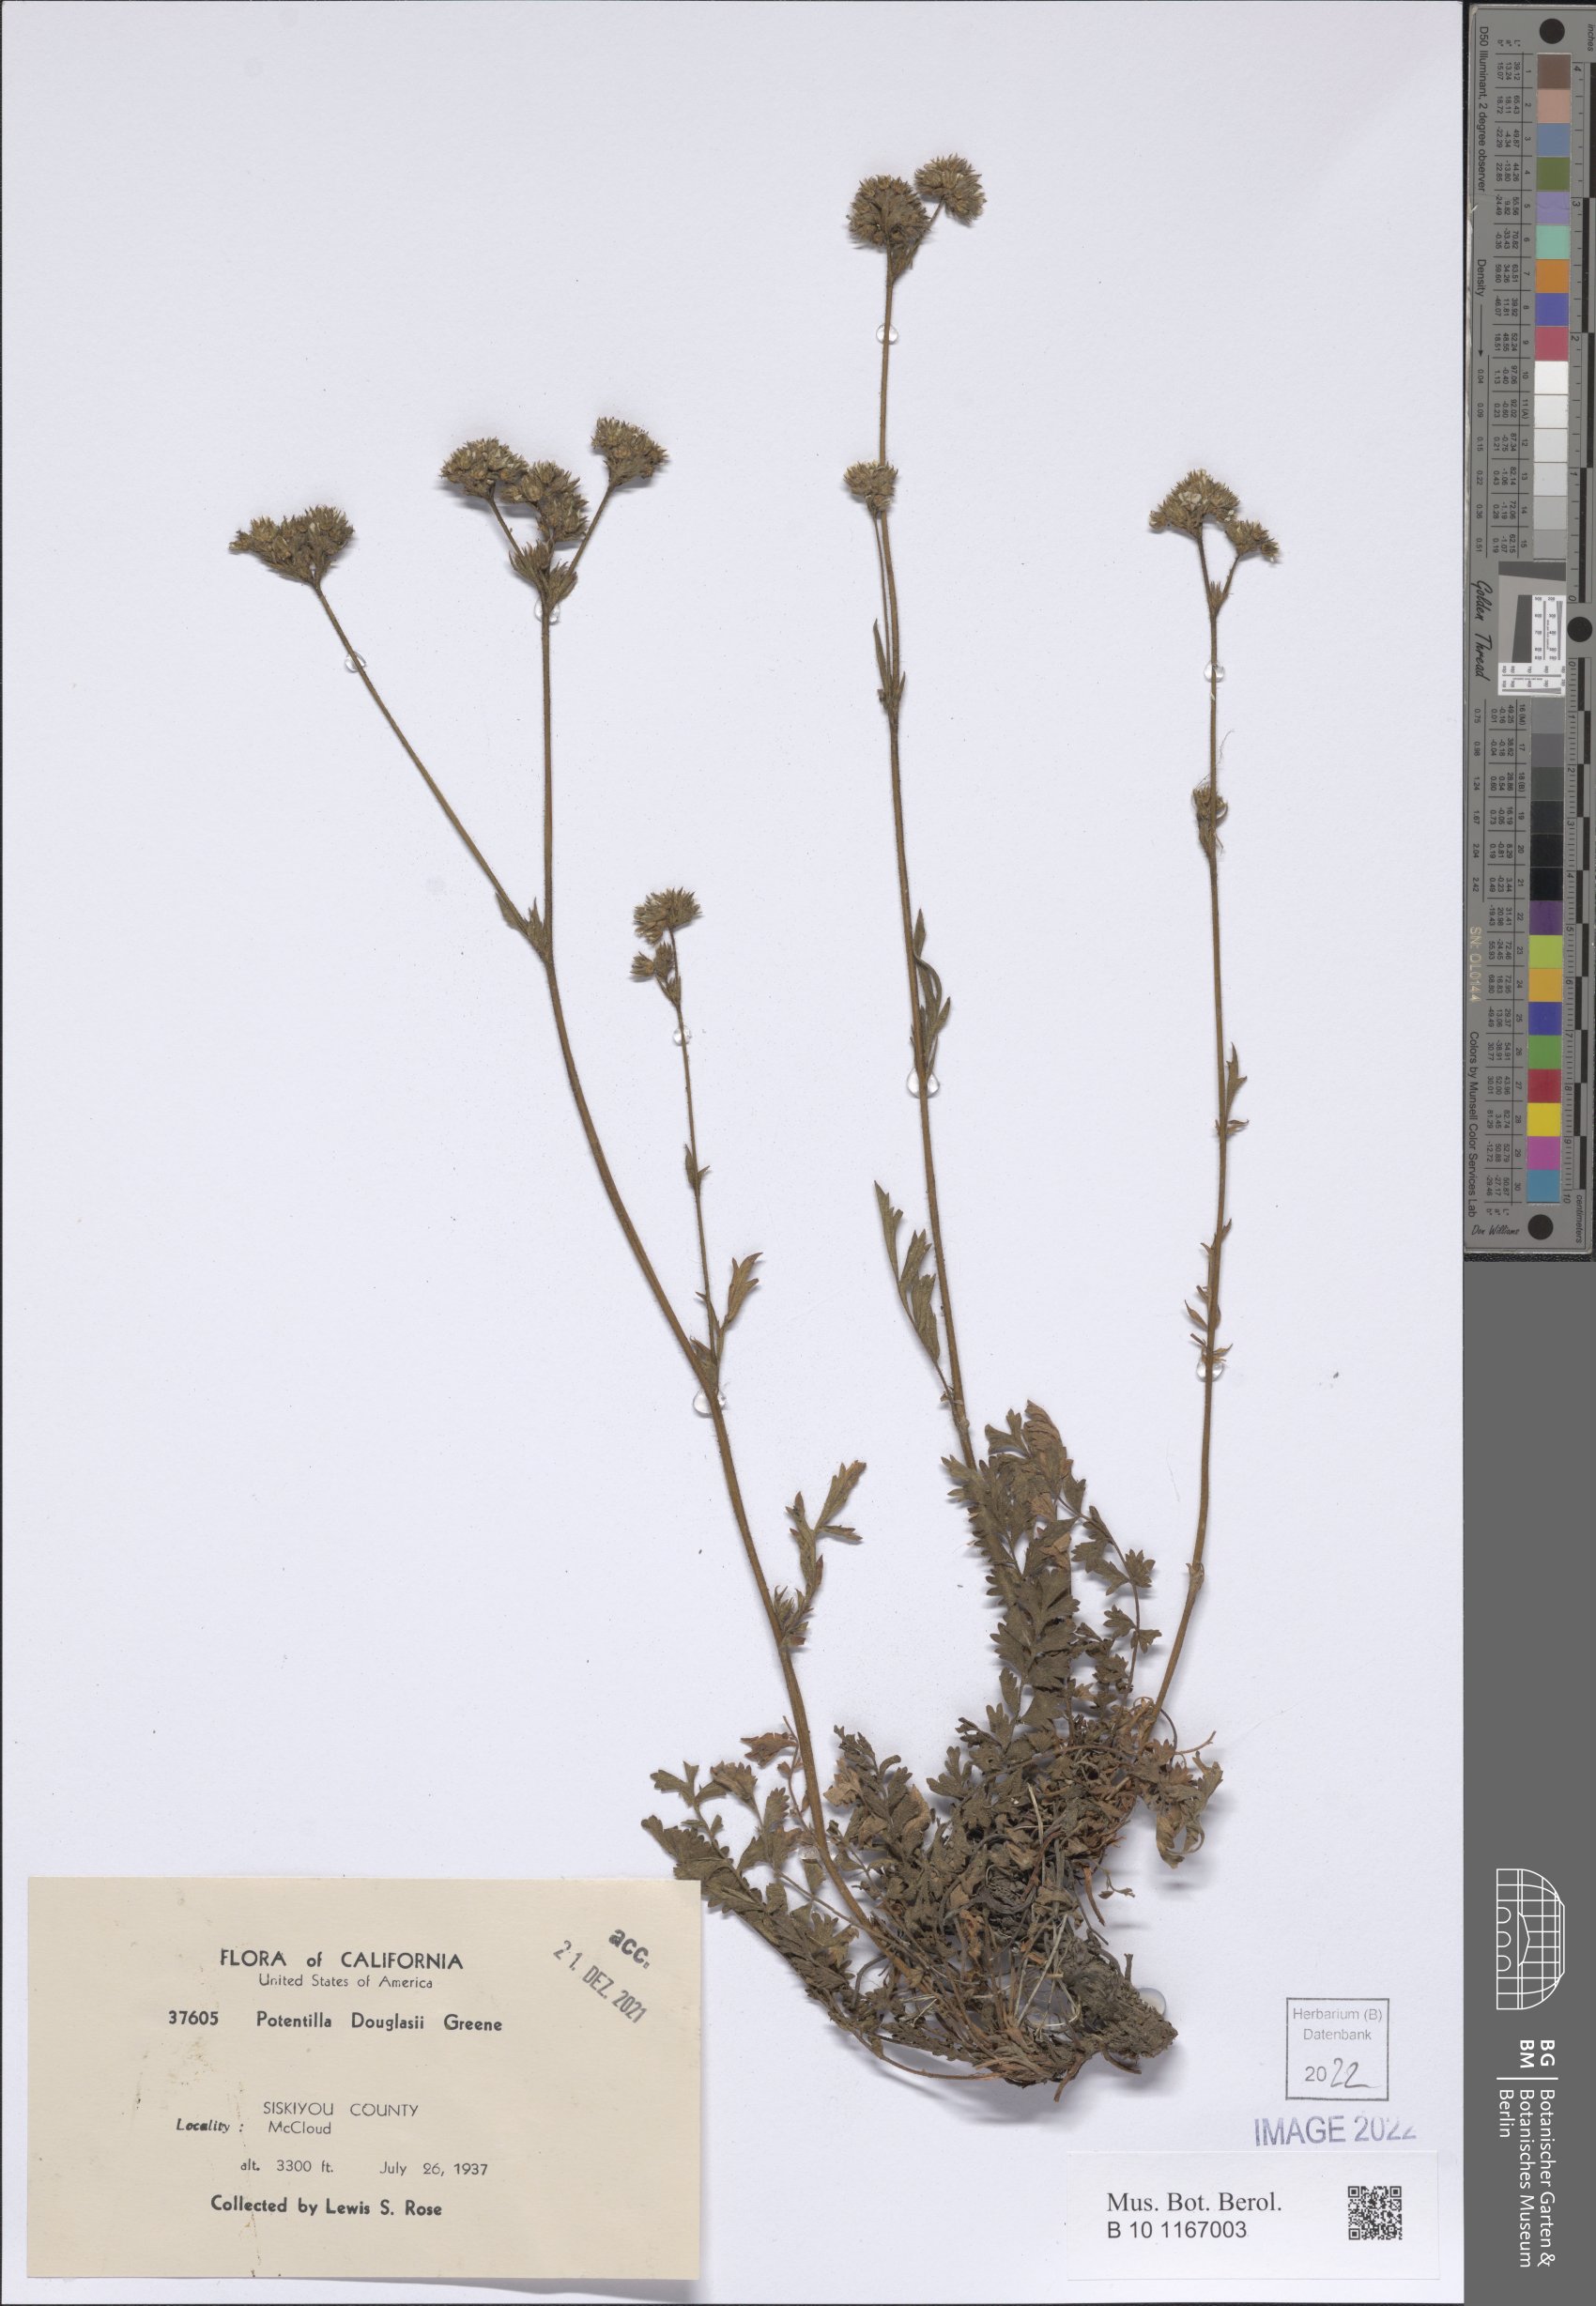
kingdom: Plantae
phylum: Tracheophyta
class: Magnoliopsida
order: Rosales
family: Rosaceae
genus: Potentilla
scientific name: Potentilla douglasii
